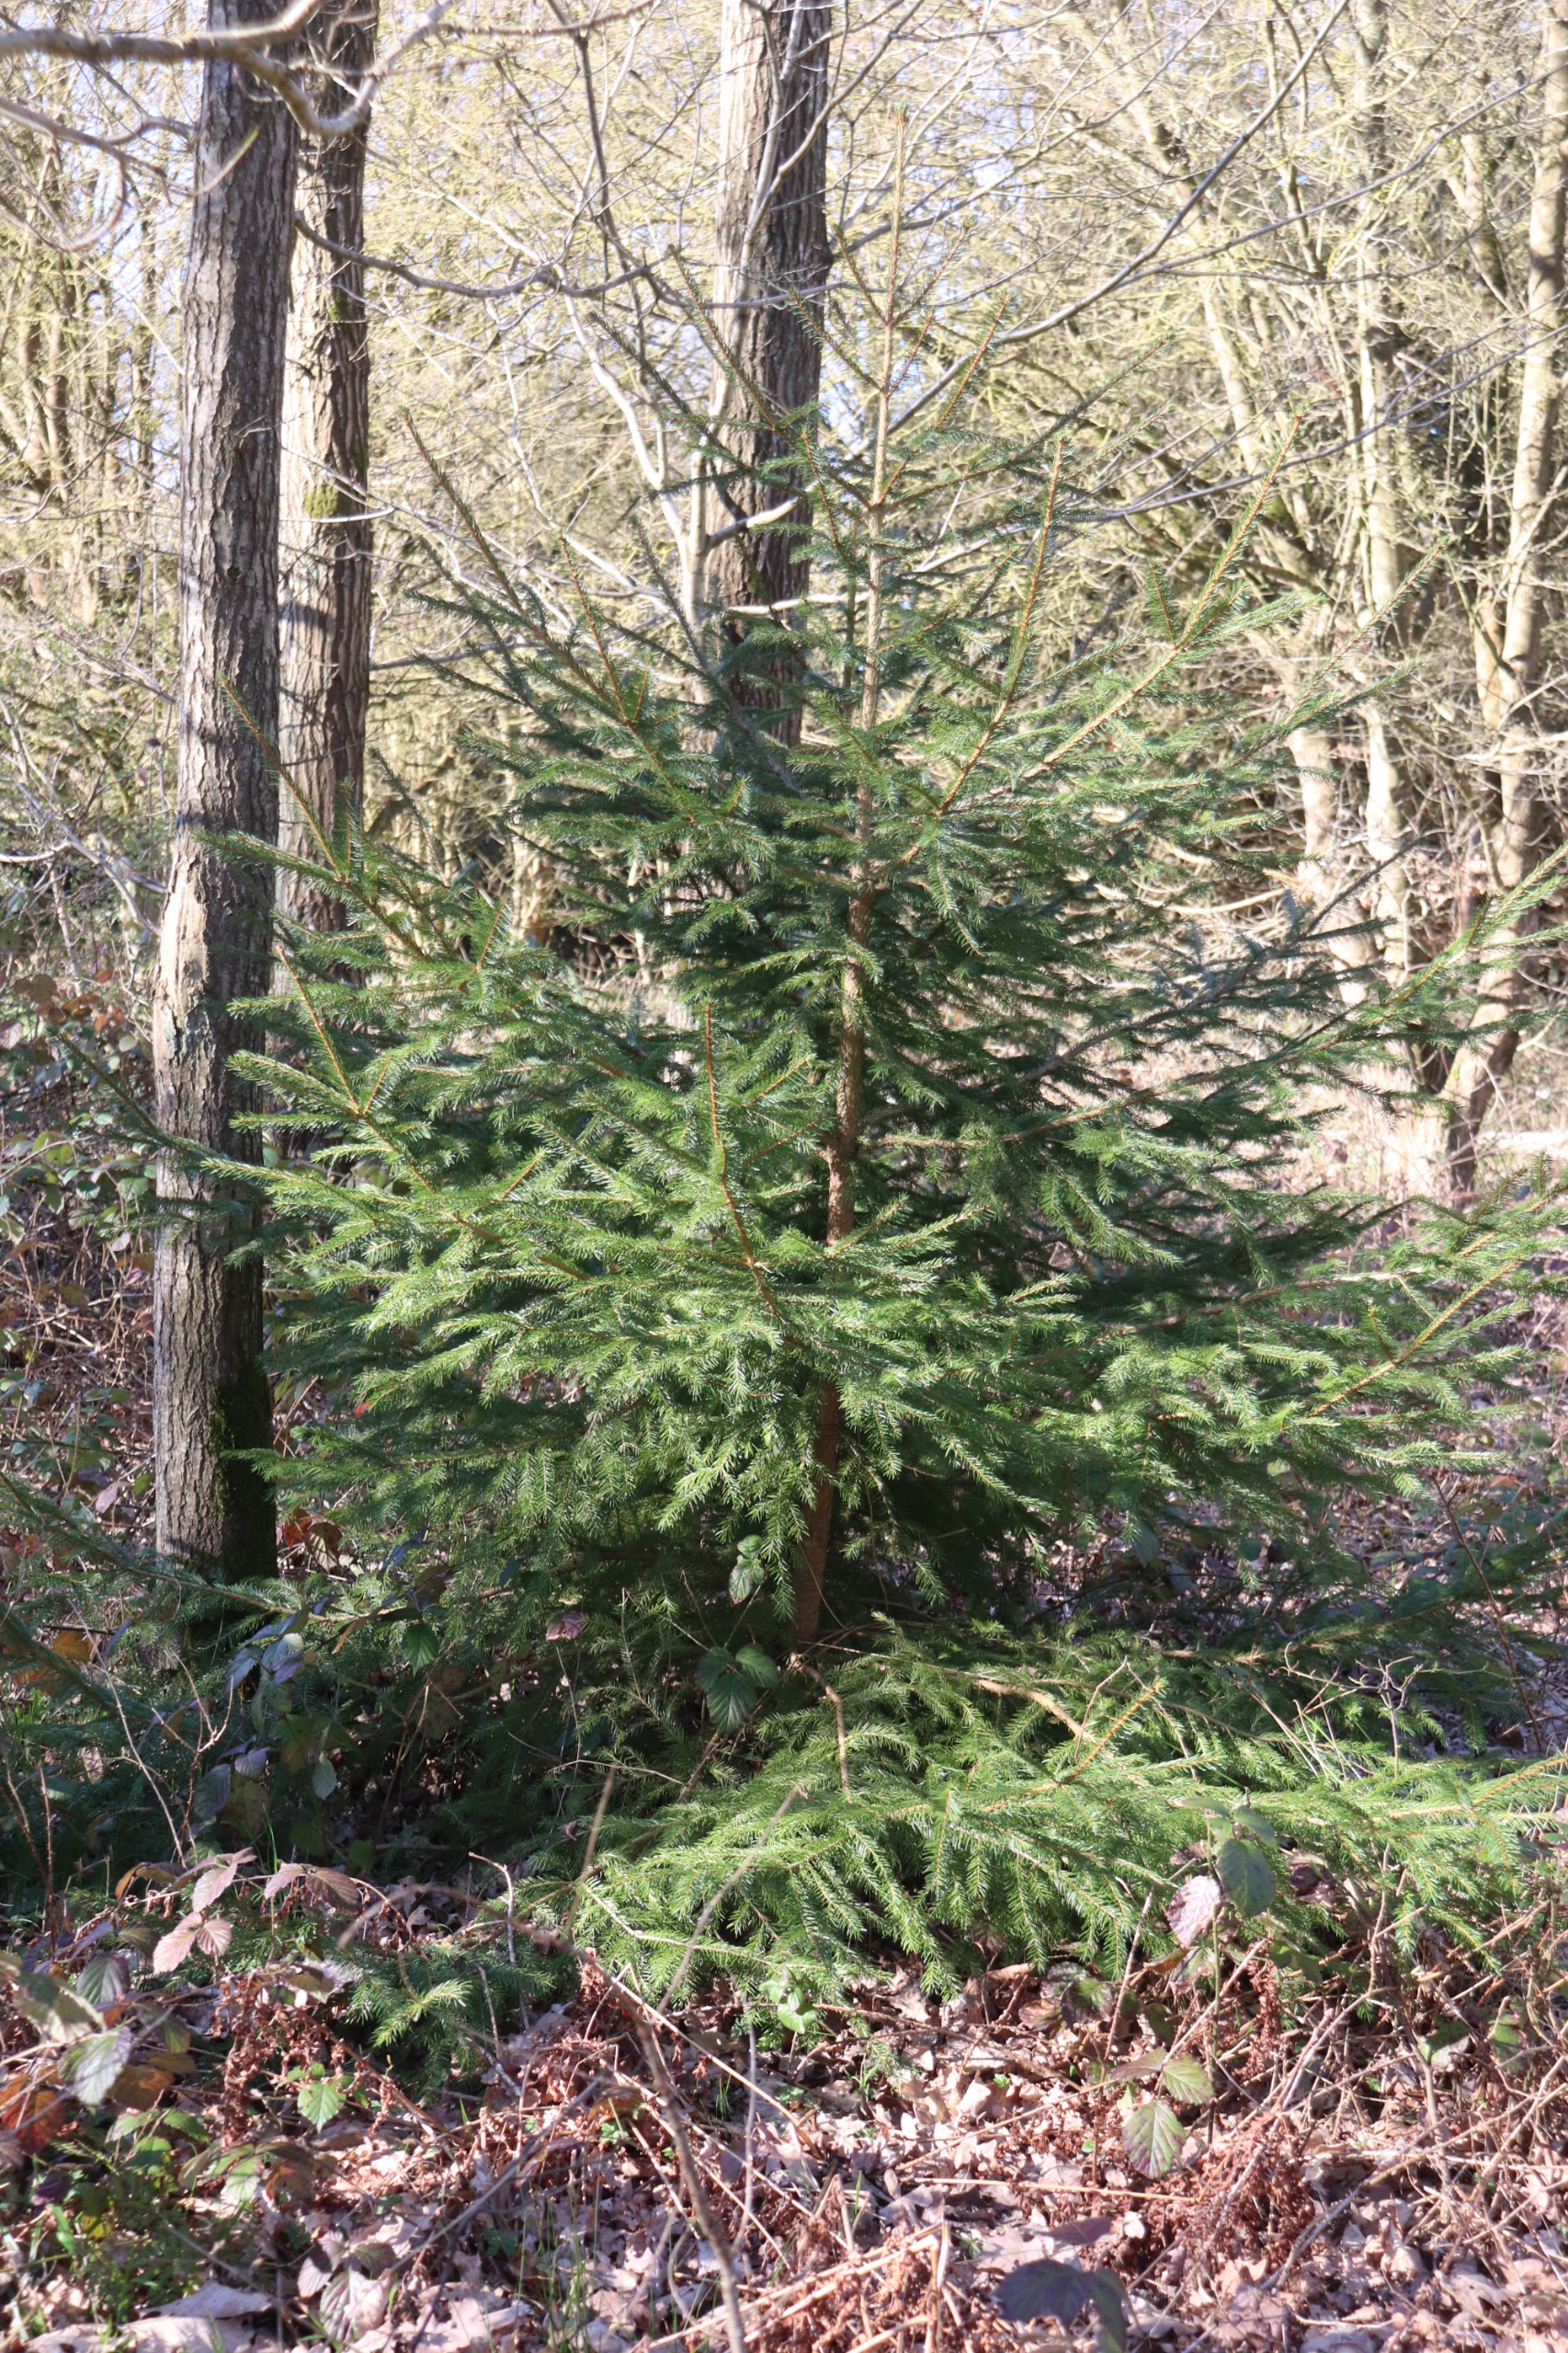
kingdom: Plantae
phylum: Tracheophyta
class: Pinopsida
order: Pinales
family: Pinaceae
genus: Picea
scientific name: Picea abies
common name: Rød-gran
